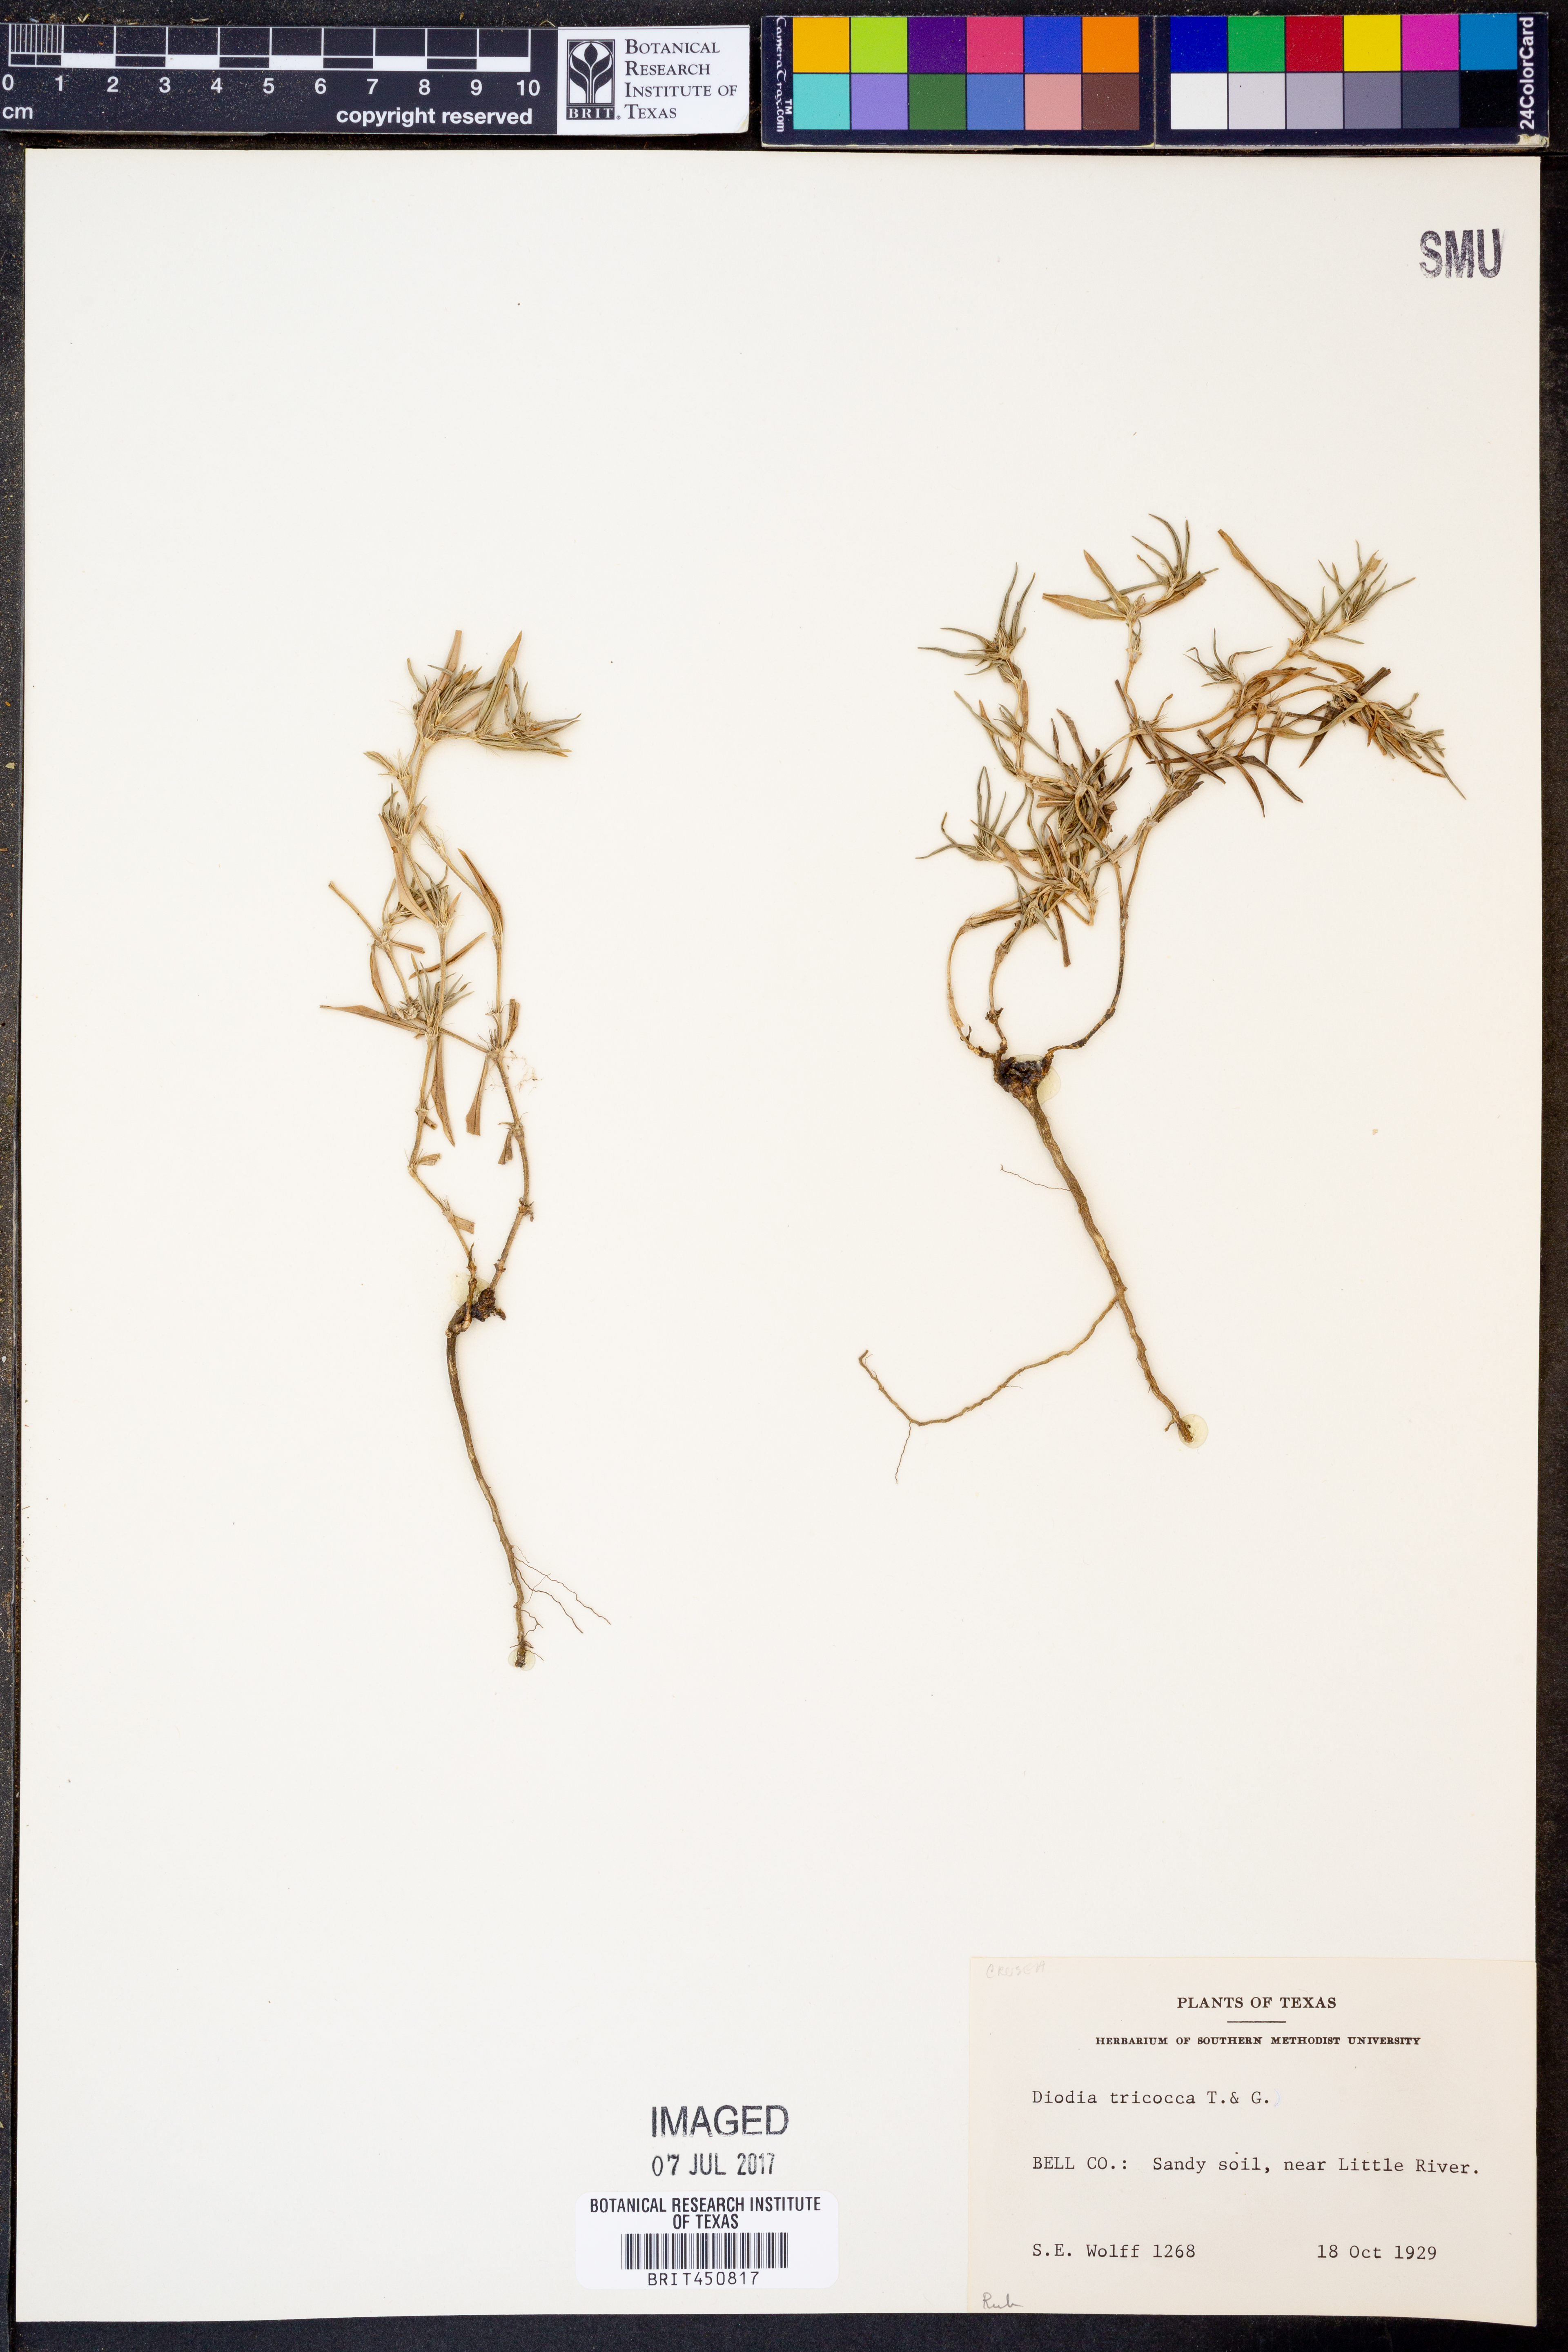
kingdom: Plantae
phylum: Tracheophyta
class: Magnoliopsida
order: Gentianales
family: Rubiaceae
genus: Richardia
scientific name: Richardia tricocca
